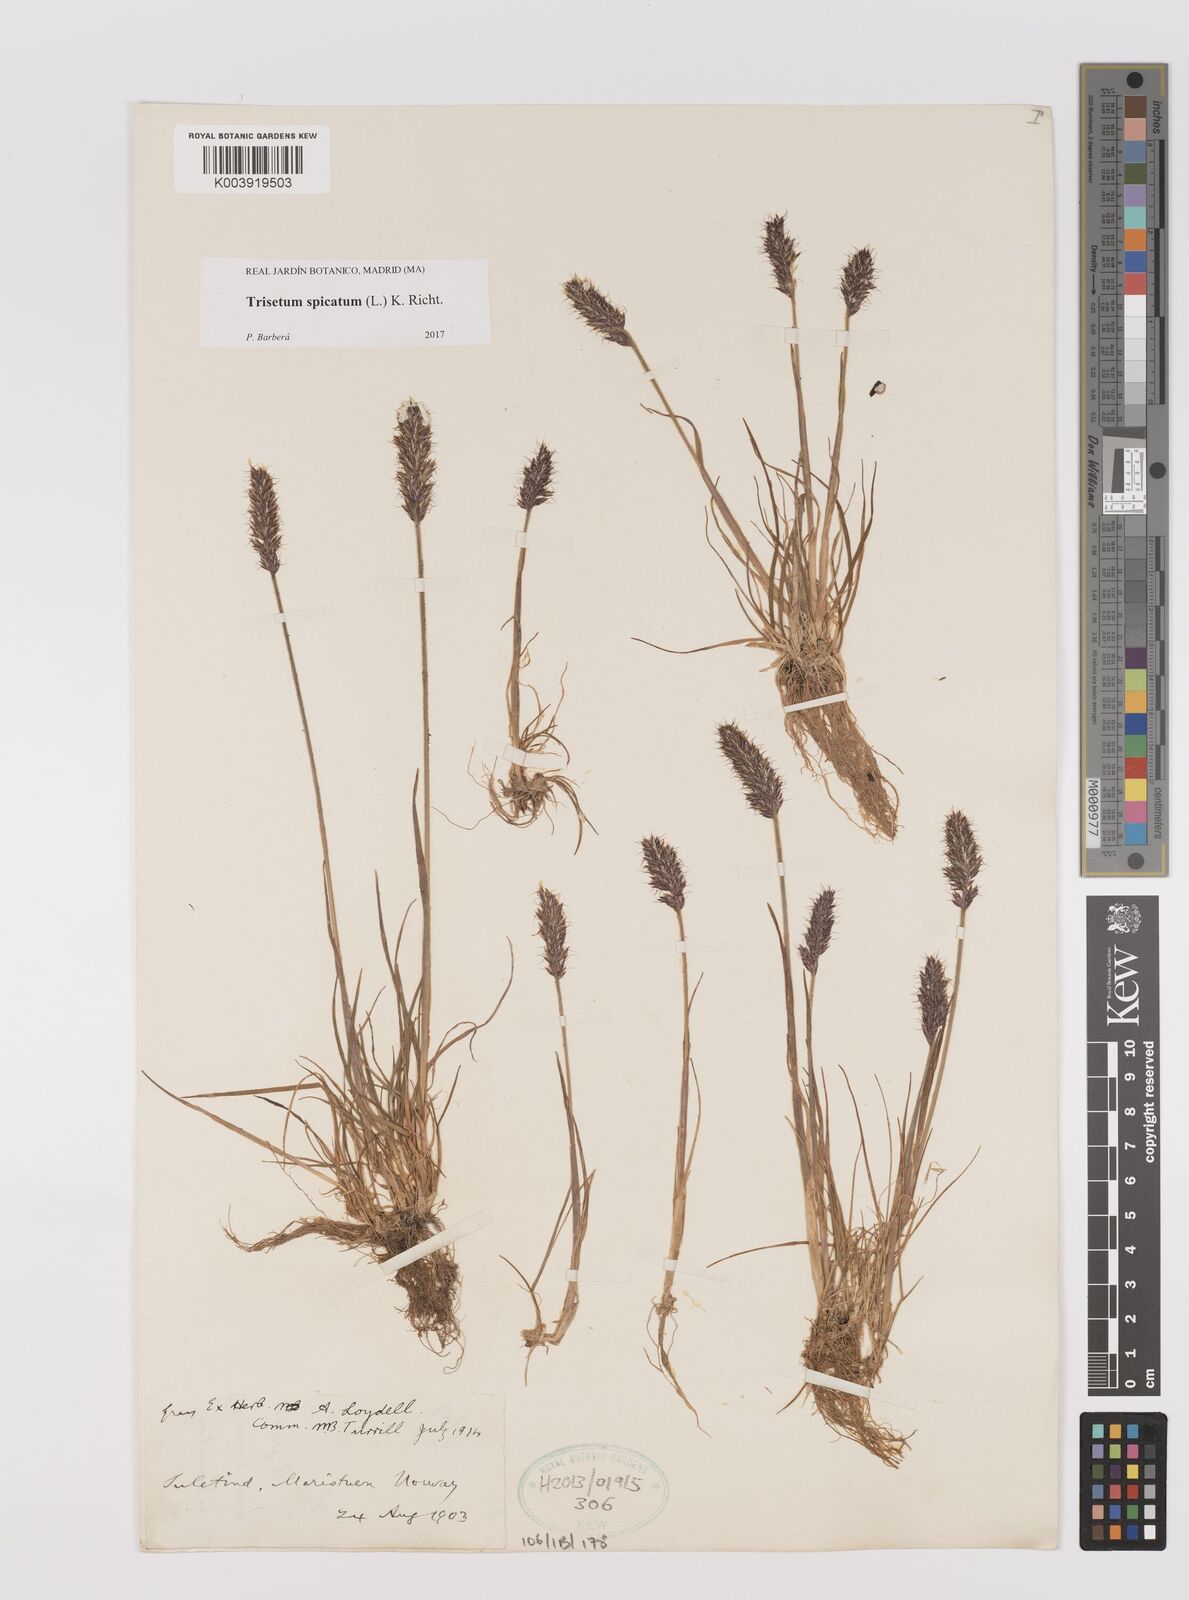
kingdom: Plantae
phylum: Tracheophyta
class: Liliopsida
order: Poales
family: Poaceae
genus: Koeleria
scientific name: Koeleria spicata
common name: Mountain trisetum
